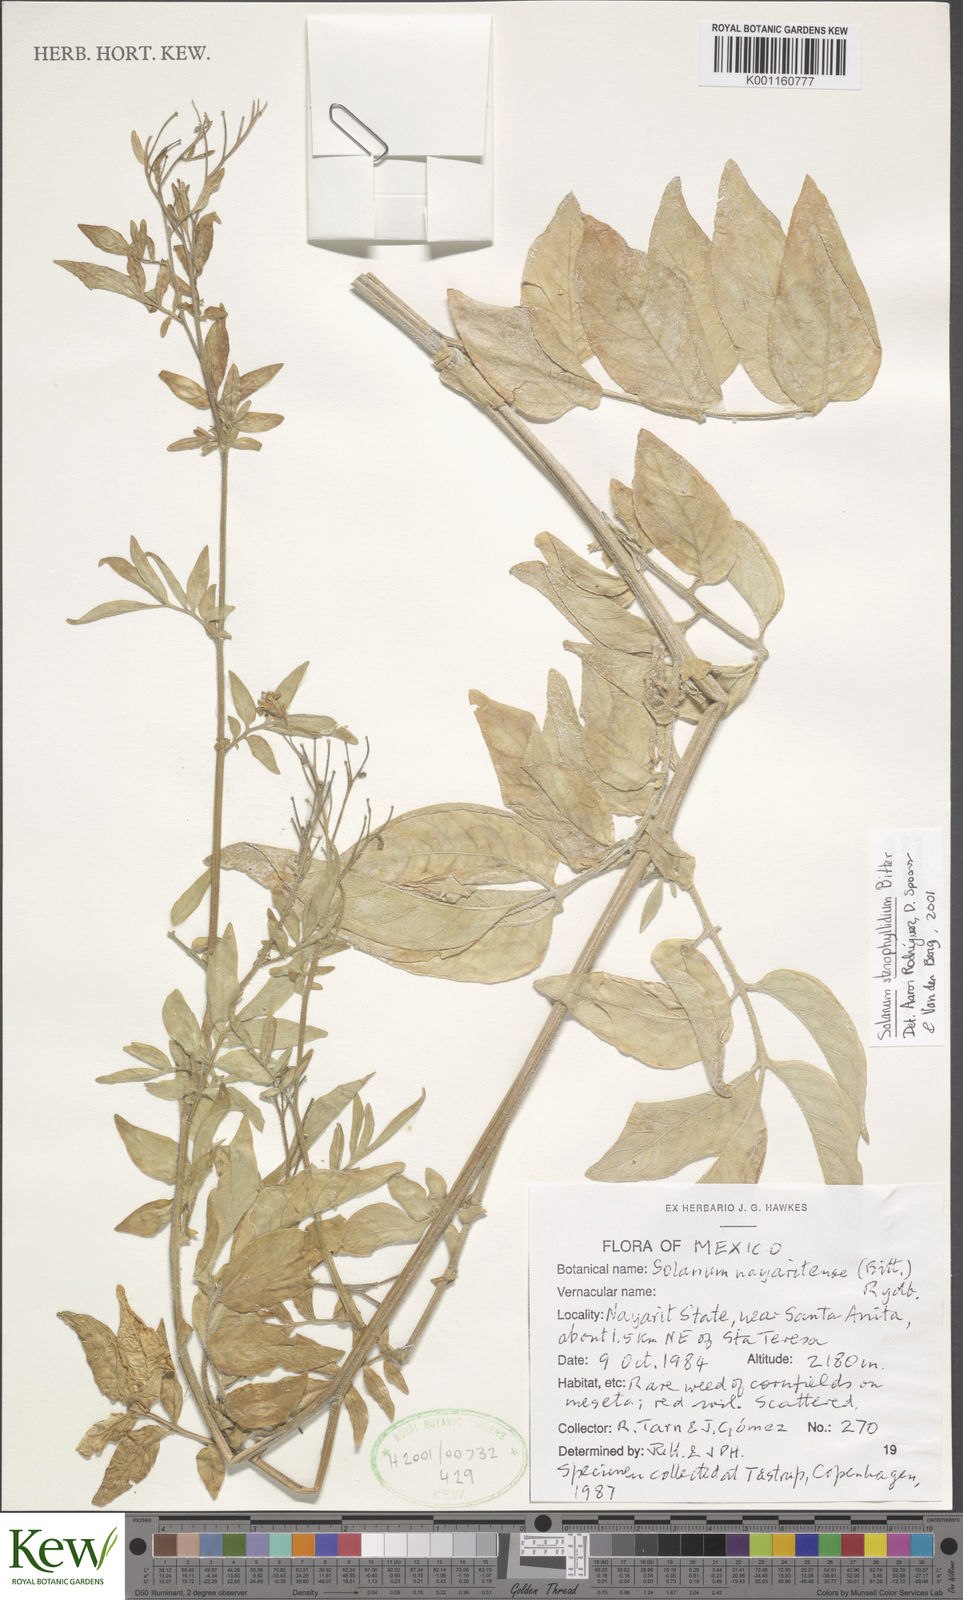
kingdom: Plantae
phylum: Tracheophyta
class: Magnoliopsida
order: Solanales
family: Solanaceae
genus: Solanum
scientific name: Solanum stenophyllidium
